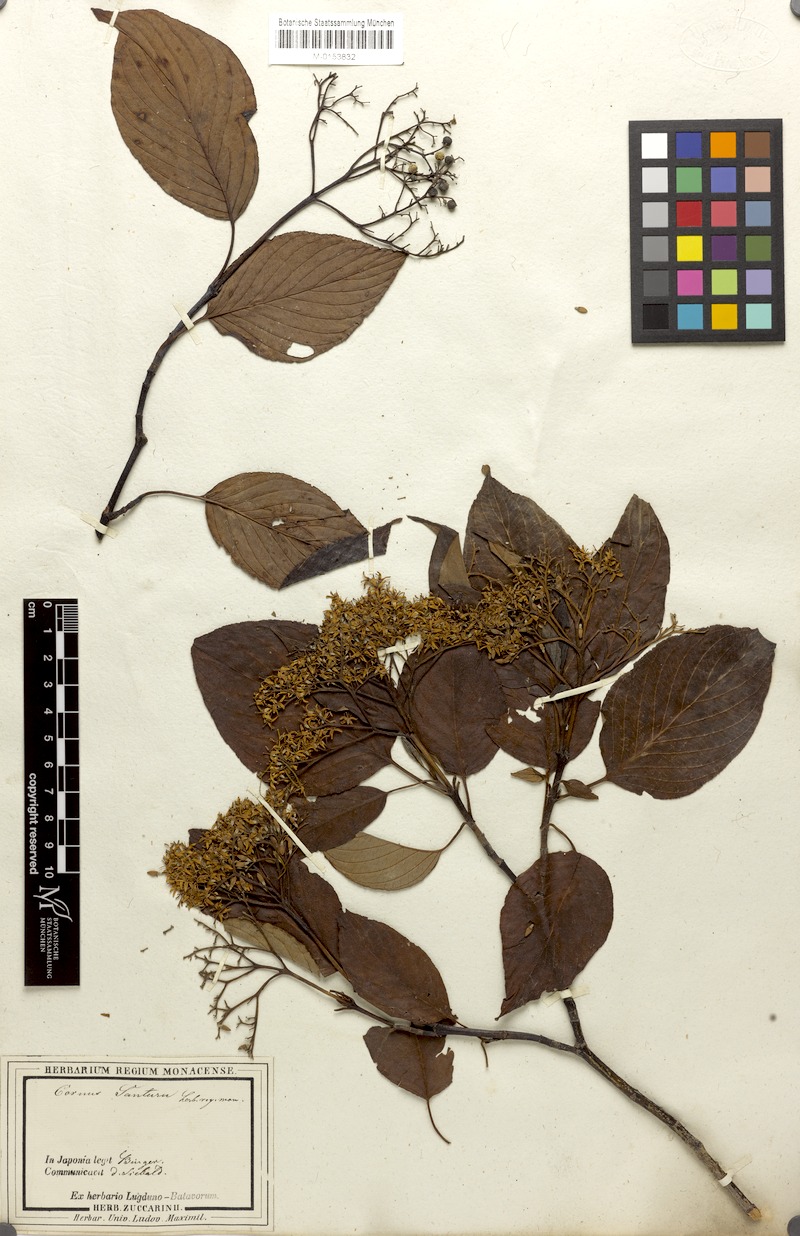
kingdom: Plantae
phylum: Tracheophyta
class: Magnoliopsida
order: Cornales
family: Cornaceae
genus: Cornus
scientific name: Cornus amomum
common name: Silky dogwood
